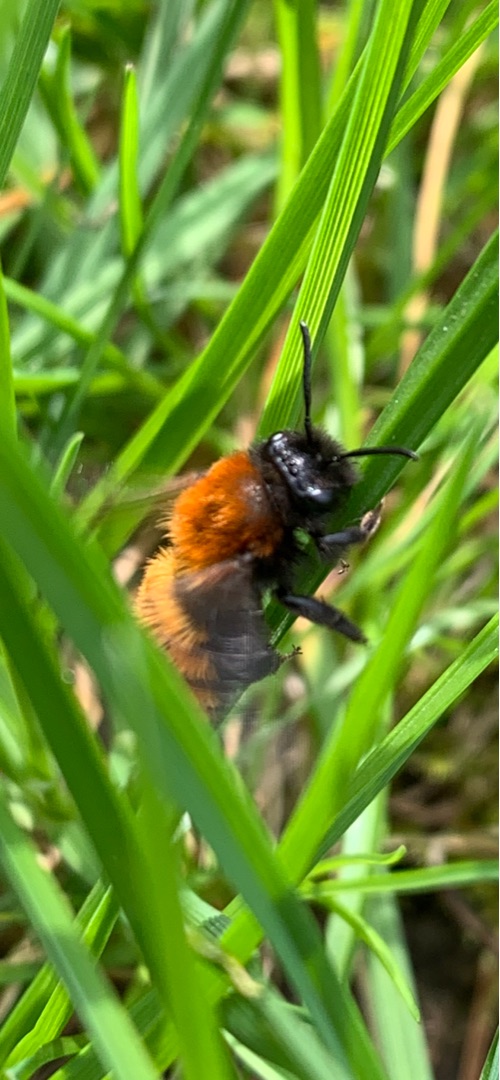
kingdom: Animalia
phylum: Arthropoda
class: Insecta
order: Hymenoptera
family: Andrenidae
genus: Andrena
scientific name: Andrena fulva
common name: Rødpelset jordbi
